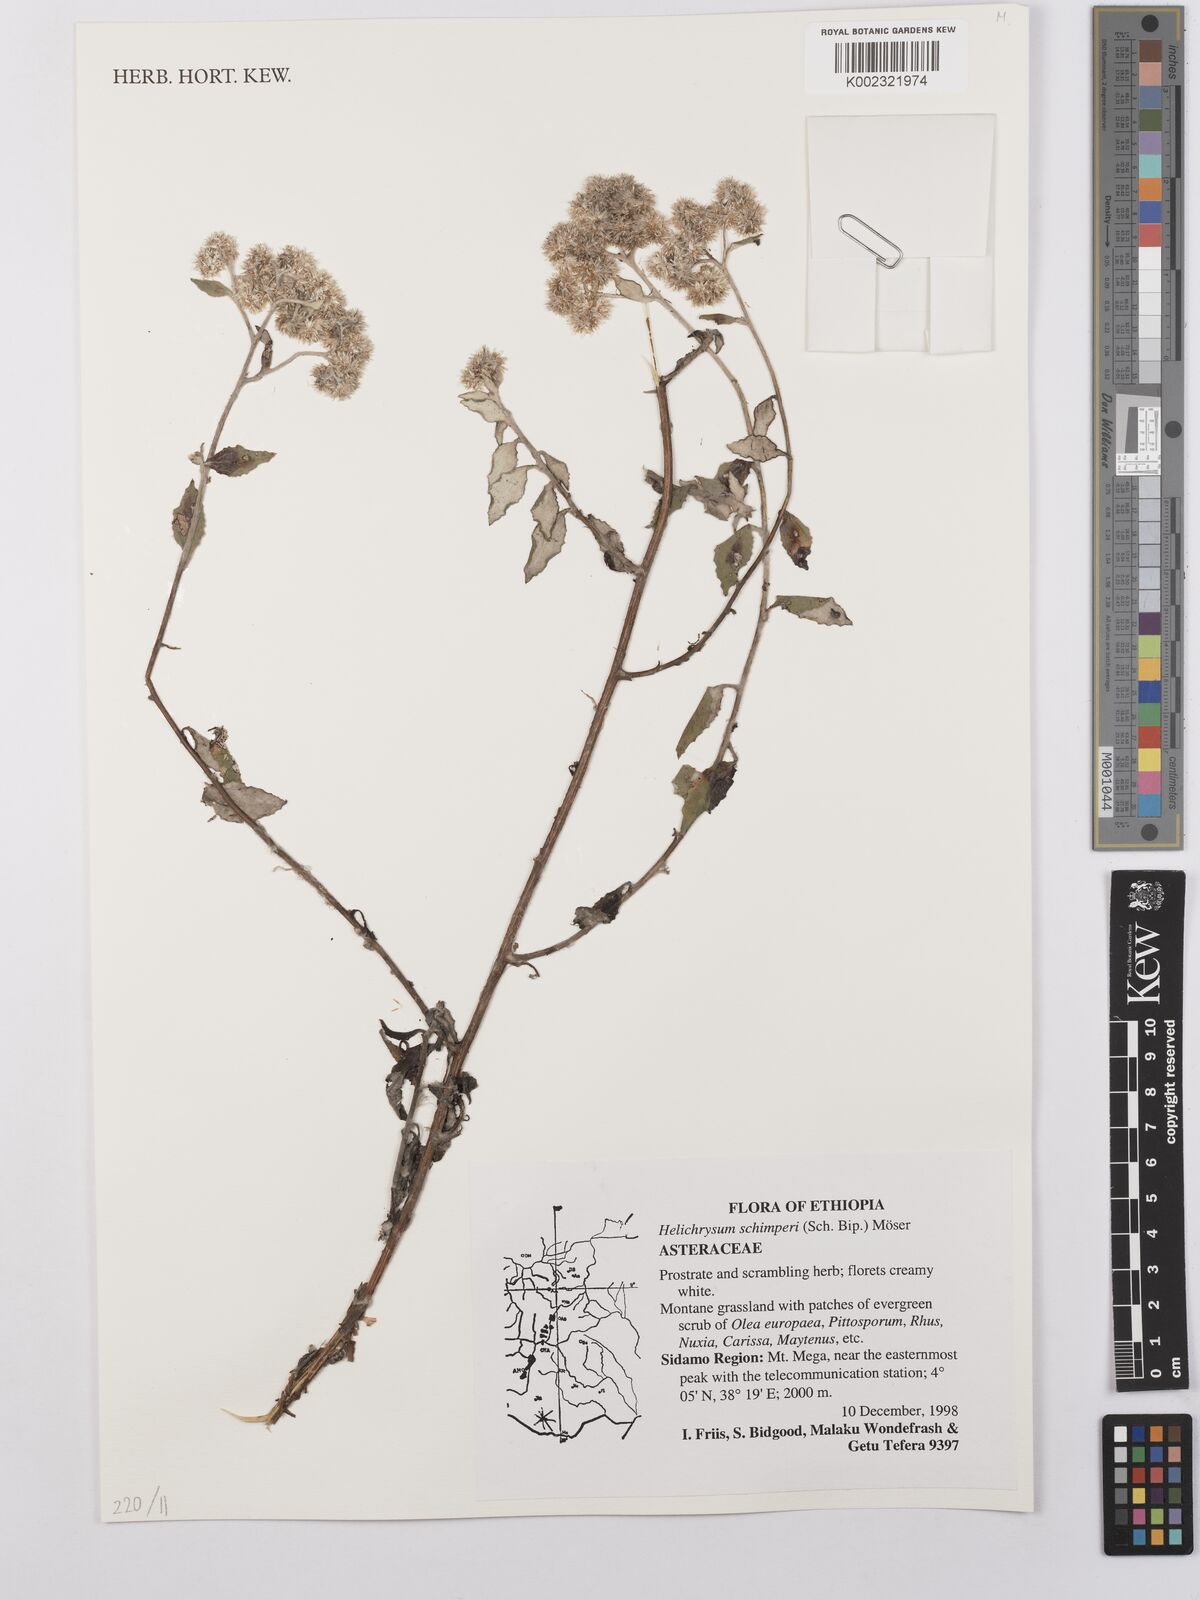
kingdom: Plantae
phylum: Tracheophyta
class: Magnoliopsida
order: Asterales
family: Asteraceae
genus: Helichrysum
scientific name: Helichrysum schimperi
